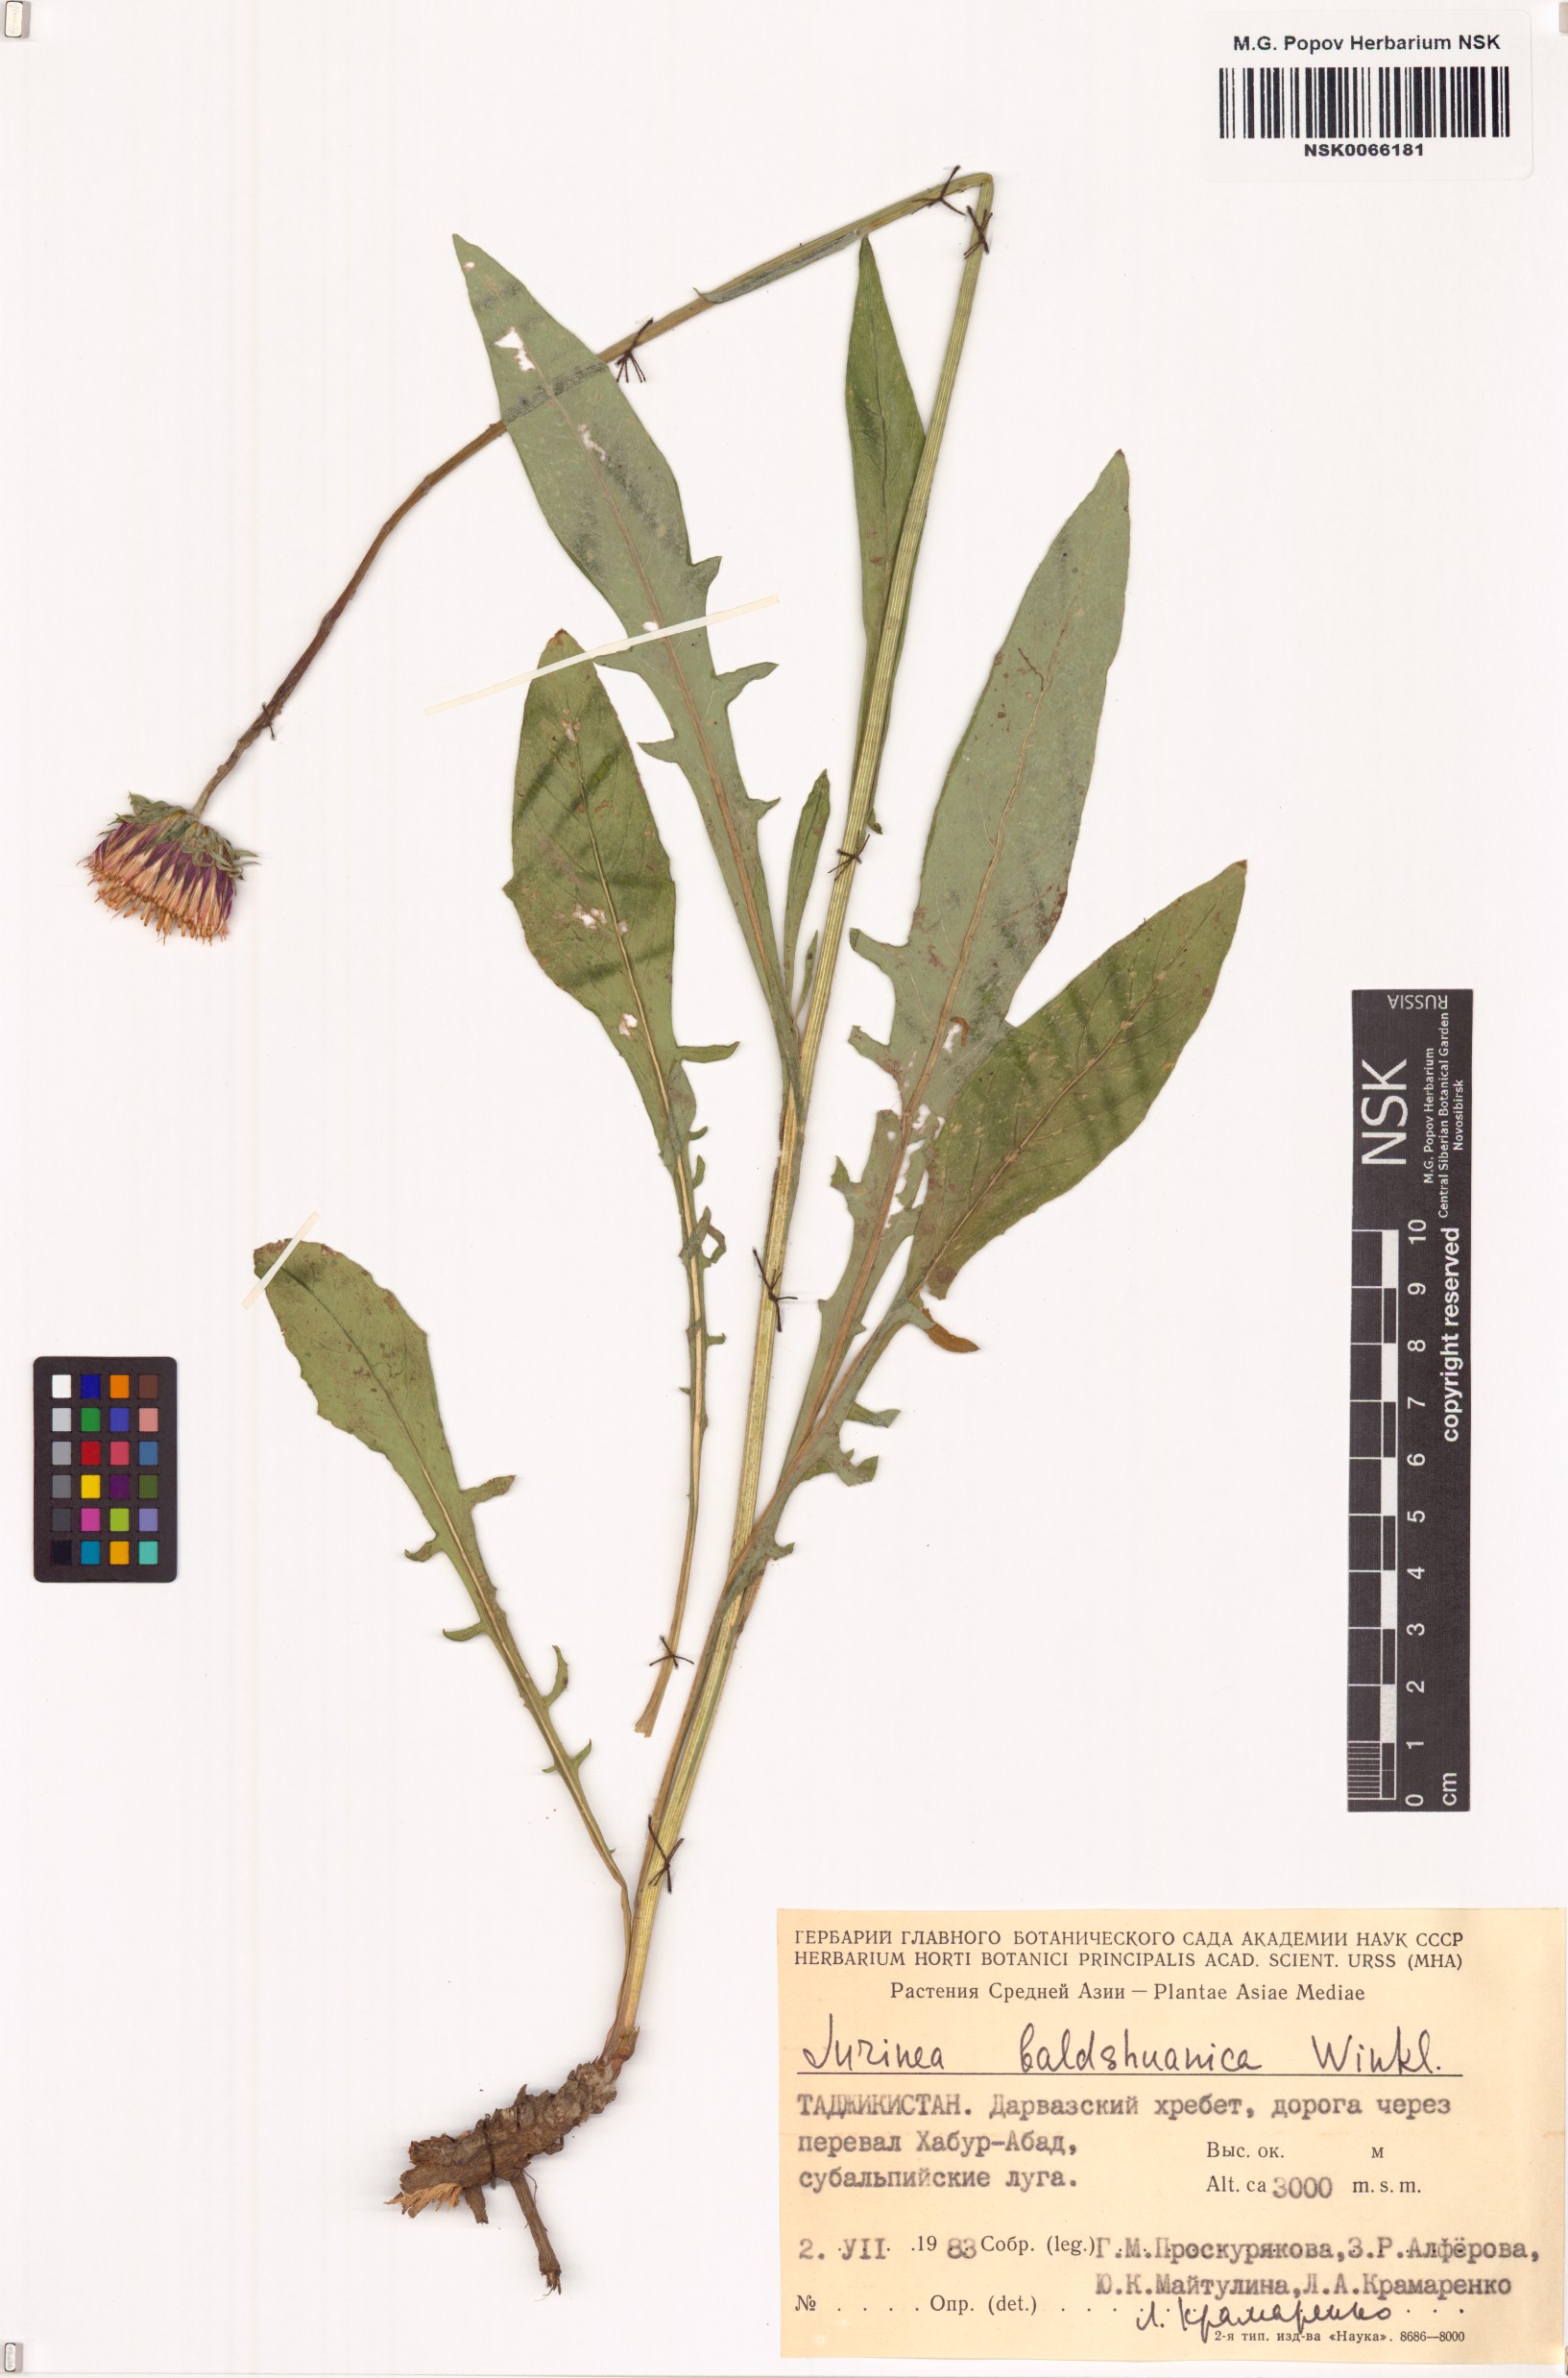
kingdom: Plantae
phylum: Tracheophyta
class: Magnoliopsida
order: Asterales
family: Asteraceae
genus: Jurinea
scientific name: Jurinea baldschuanica
